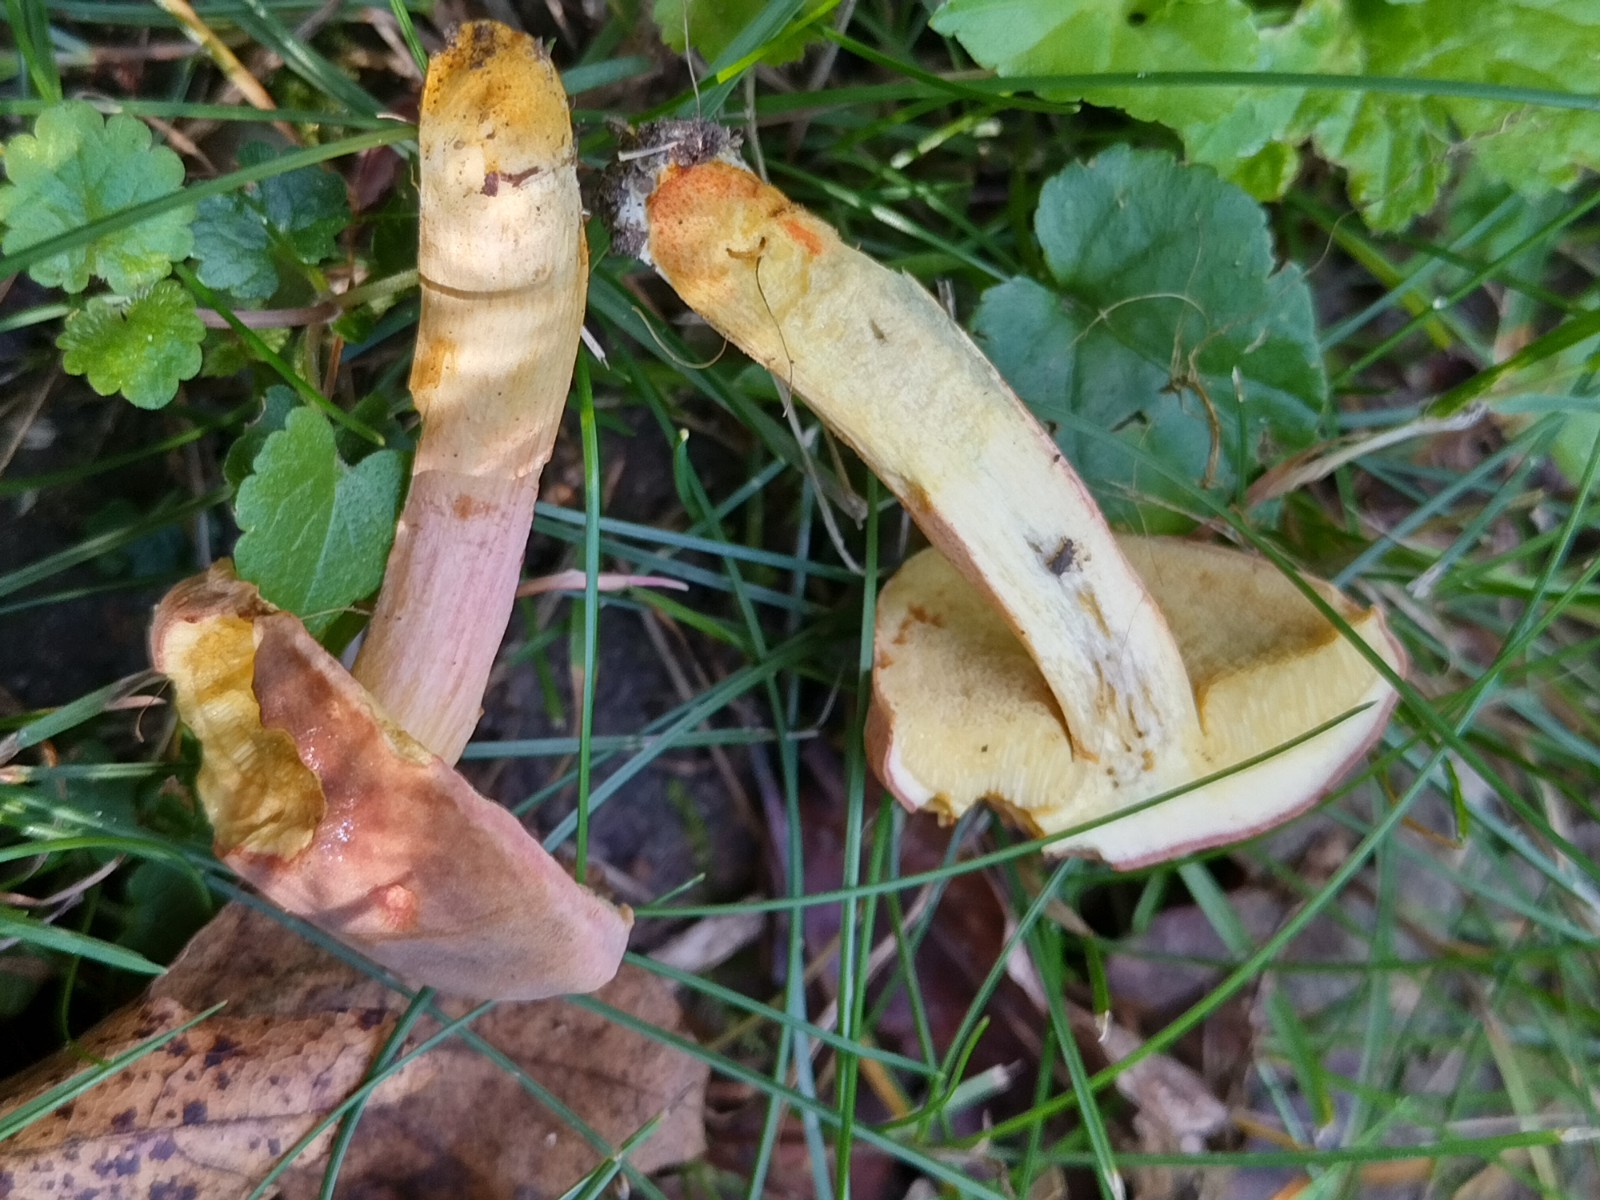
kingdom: Fungi
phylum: Basidiomycota
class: Agaricomycetes
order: Boletales
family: Boletaceae
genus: Hortiboletus
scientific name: Hortiboletus engelii
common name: fersken-rørhat
